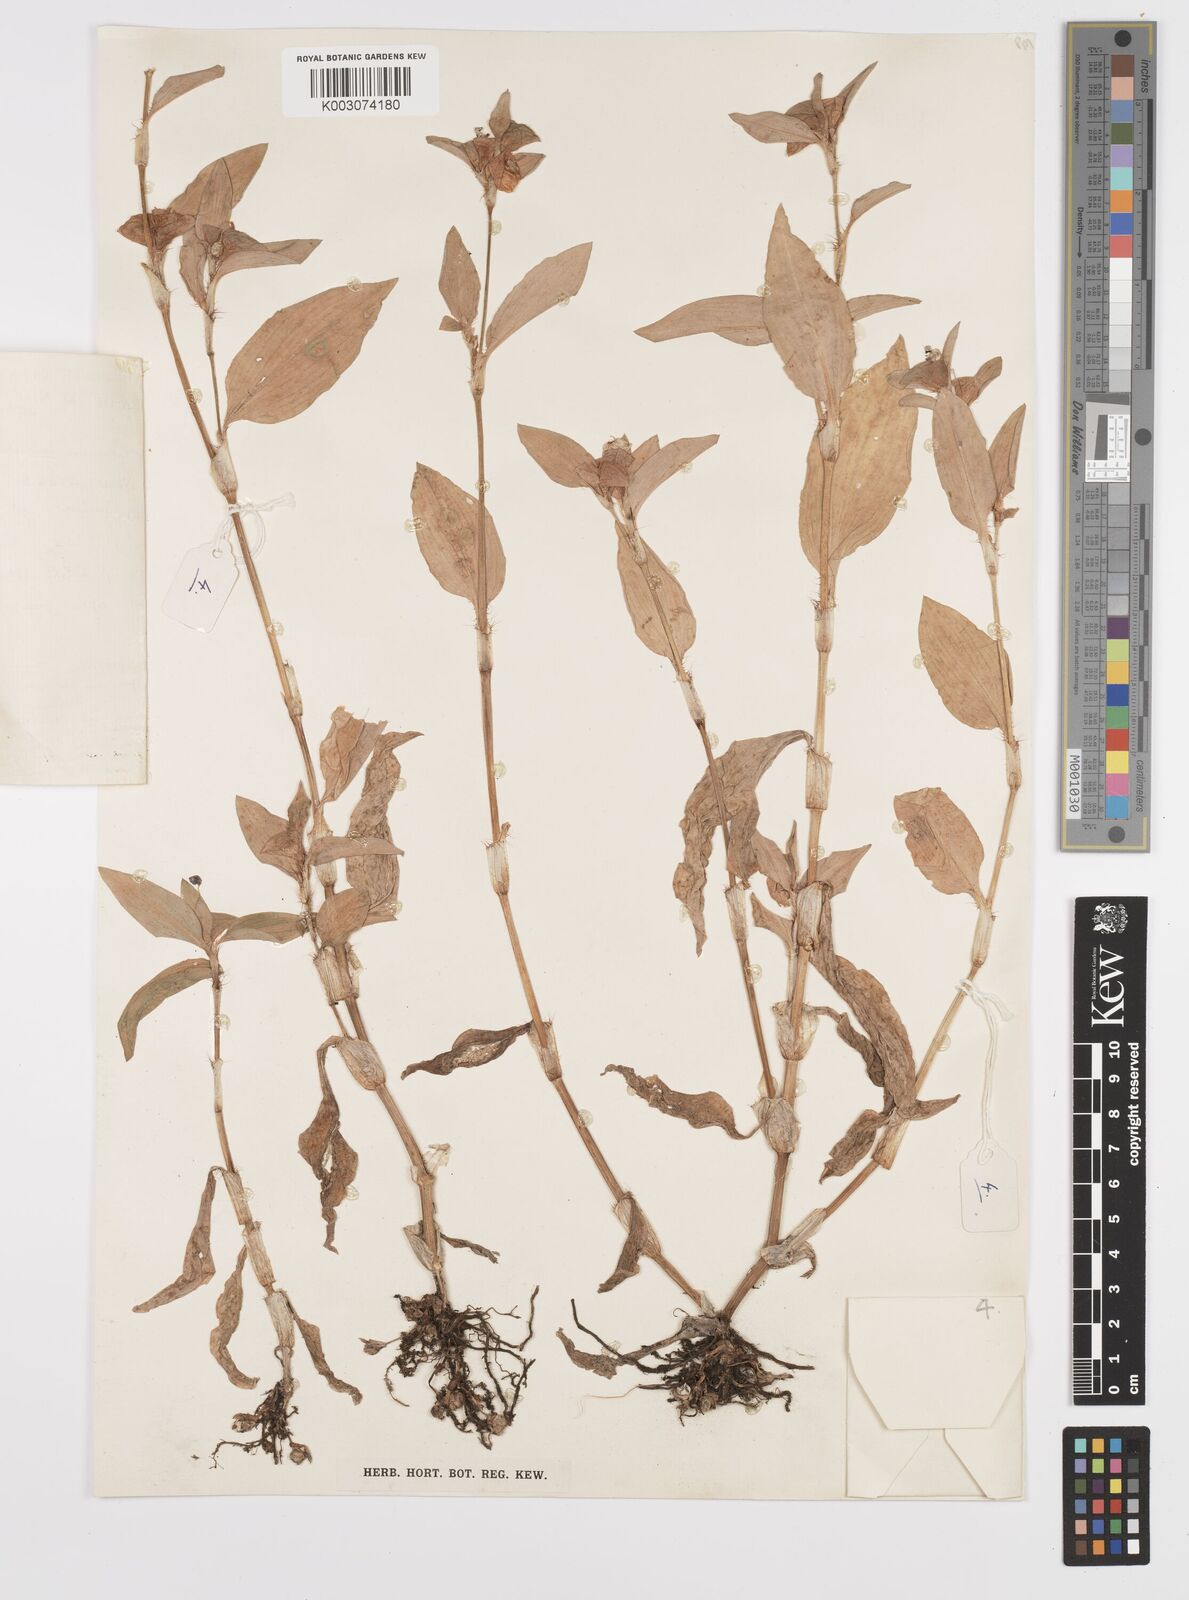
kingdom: Plantae
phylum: Tracheophyta
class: Liliopsida
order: Commelinales
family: Commelinaceae
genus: Commelina
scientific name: Commelina benghalensis
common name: Jio
